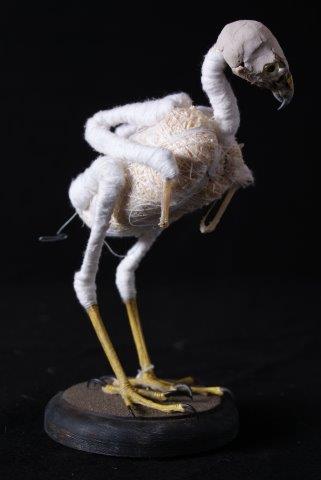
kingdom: Animalia
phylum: Chordata
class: Aves
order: Accipitriformes
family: Accipitridae
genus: Accipiter
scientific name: Accipiter nisus
